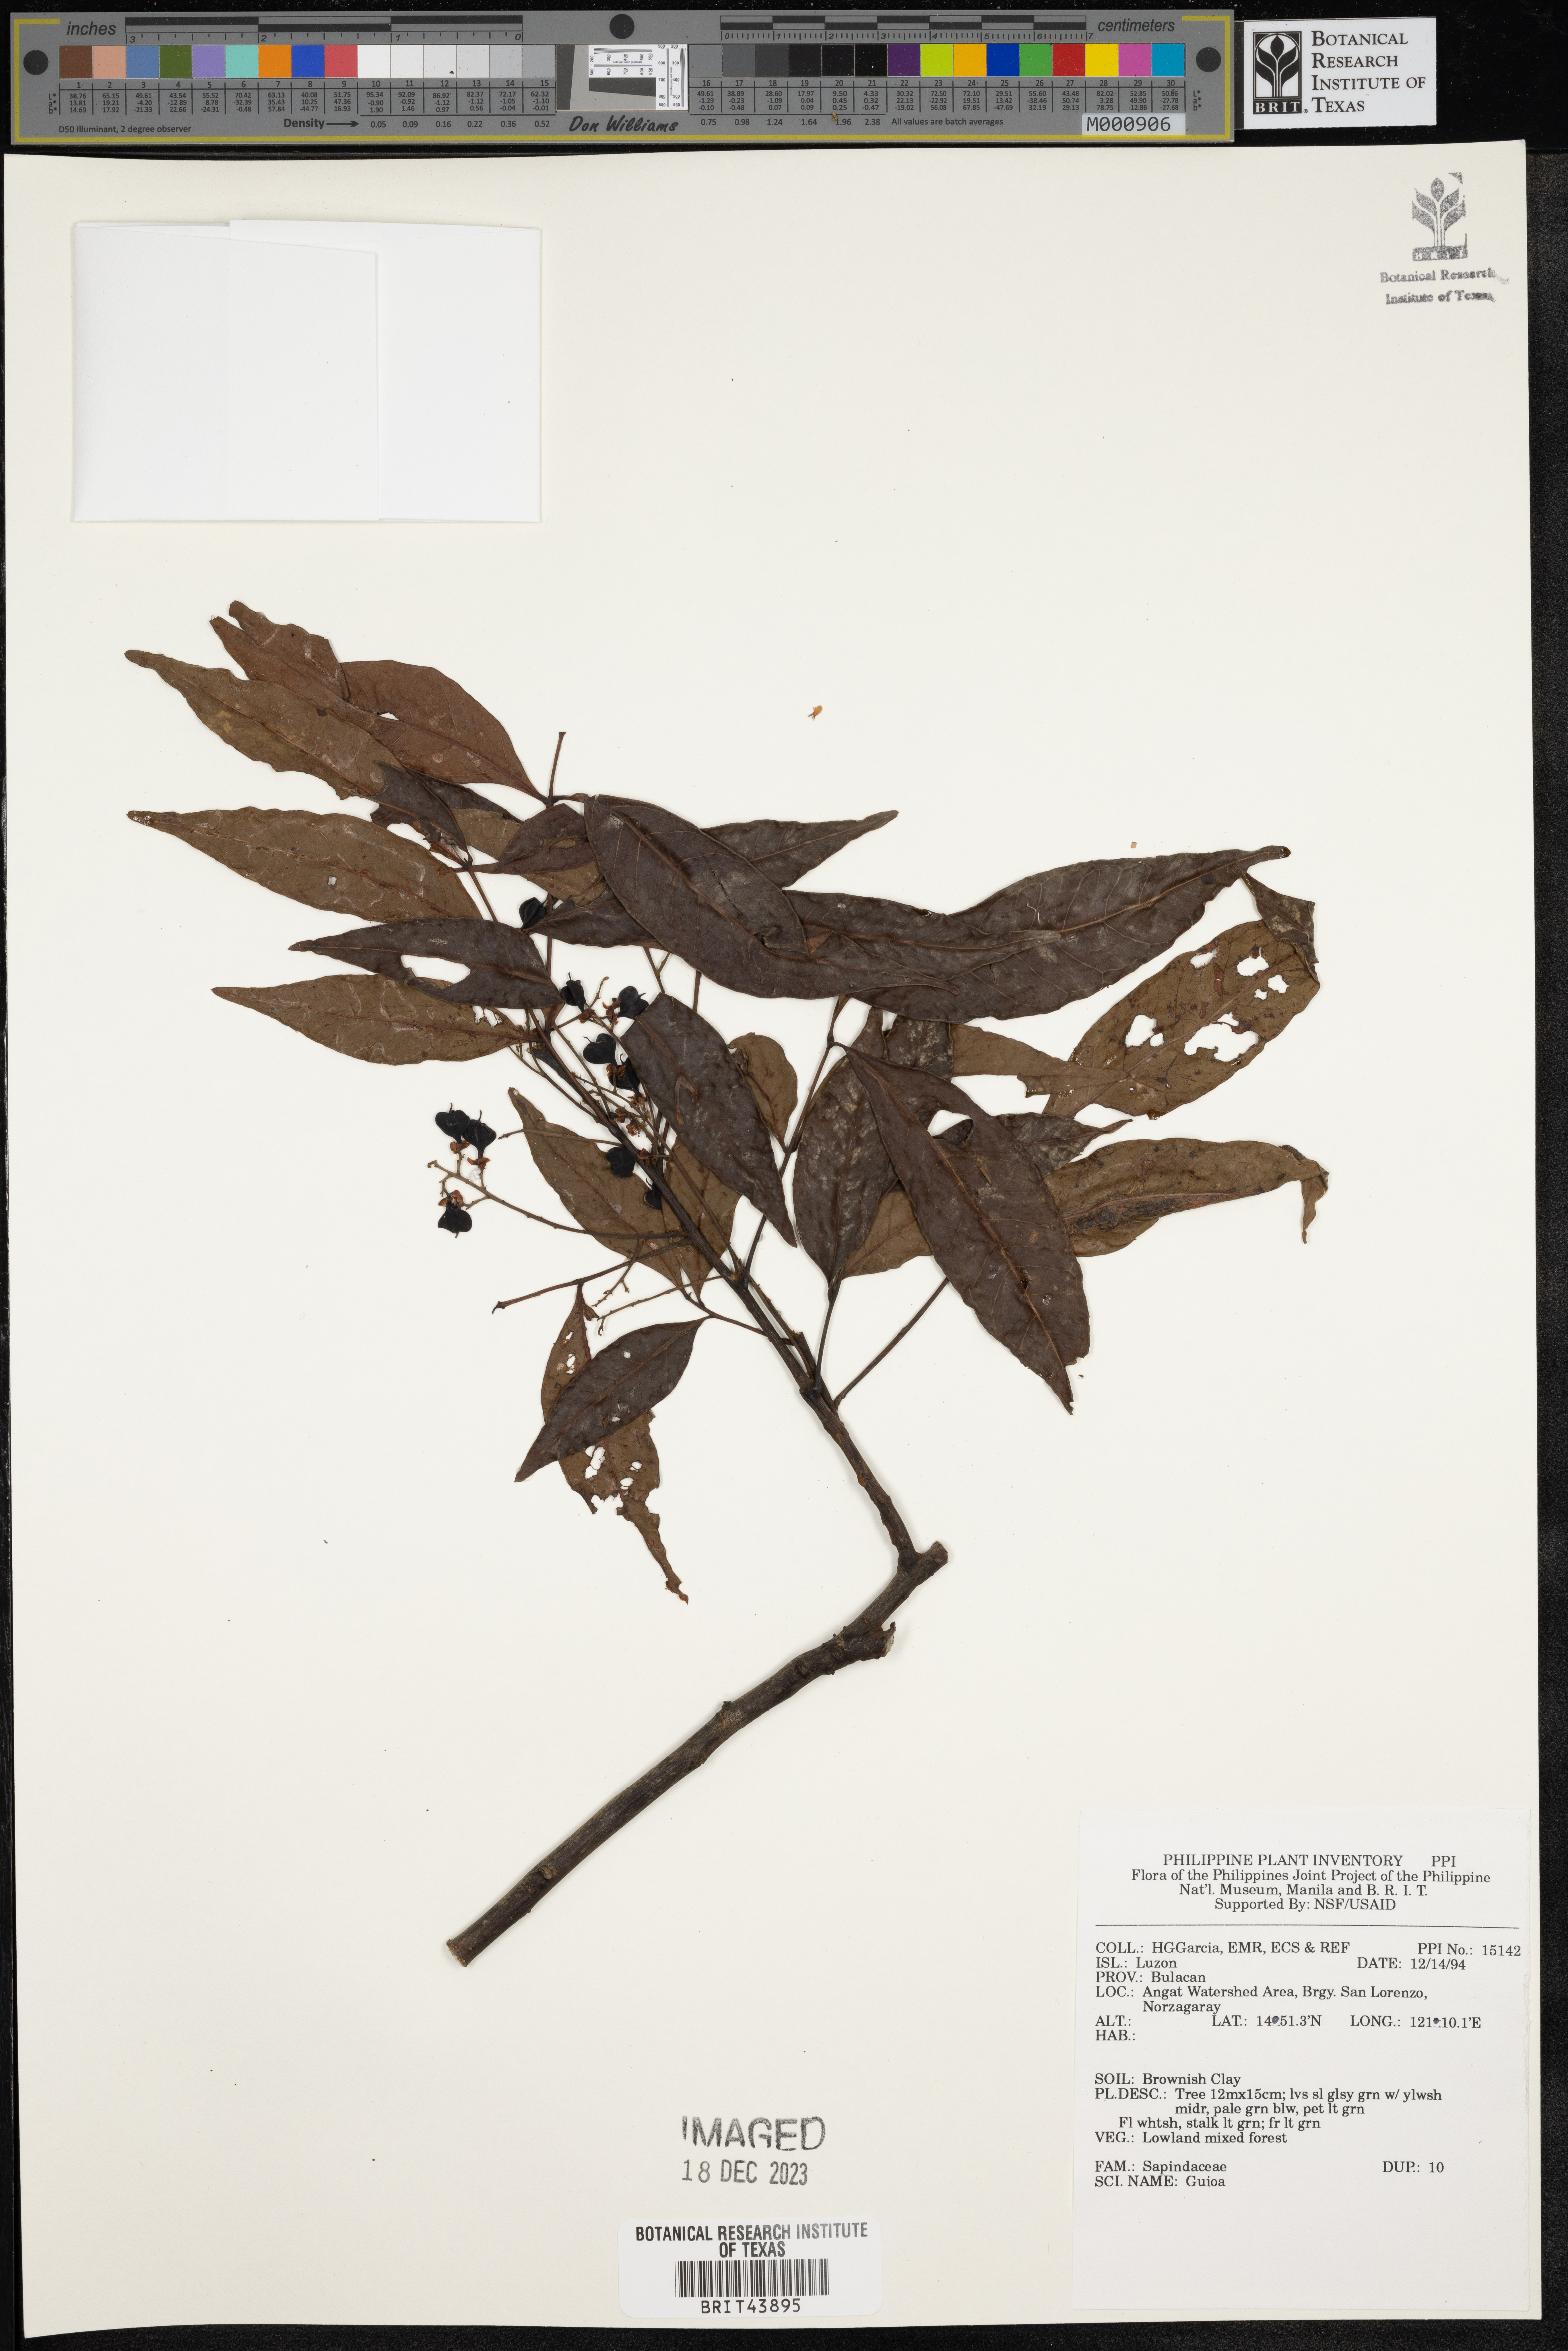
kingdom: Plantae
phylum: Tracheophyta
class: Magnoliopsida
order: Sapindales
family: Sapindaceae
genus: Guioa
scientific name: Guioa
